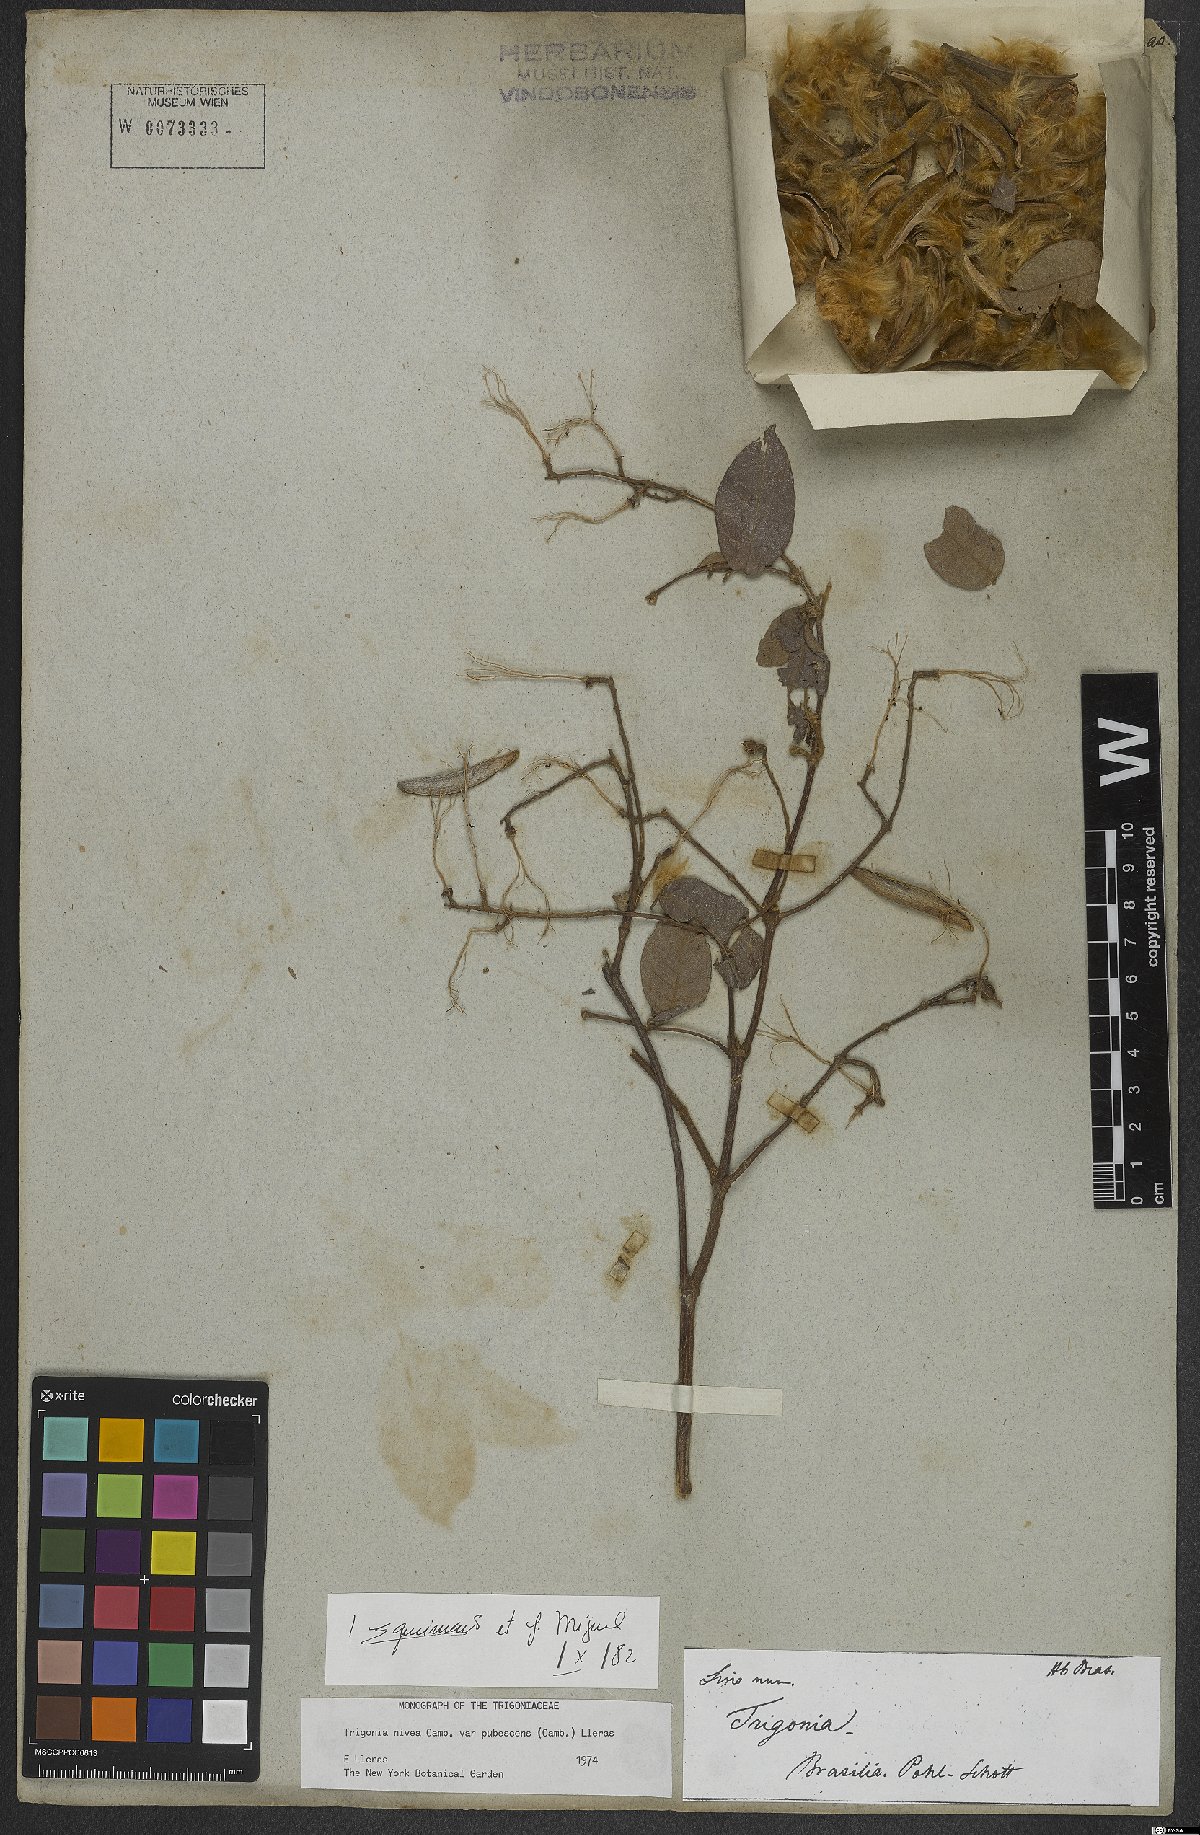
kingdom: Plantae
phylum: Tracheophyta
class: Magnoliopsida
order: Malpighiales
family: Trigoniaceae
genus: Trigonia
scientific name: Trigonia nivea
